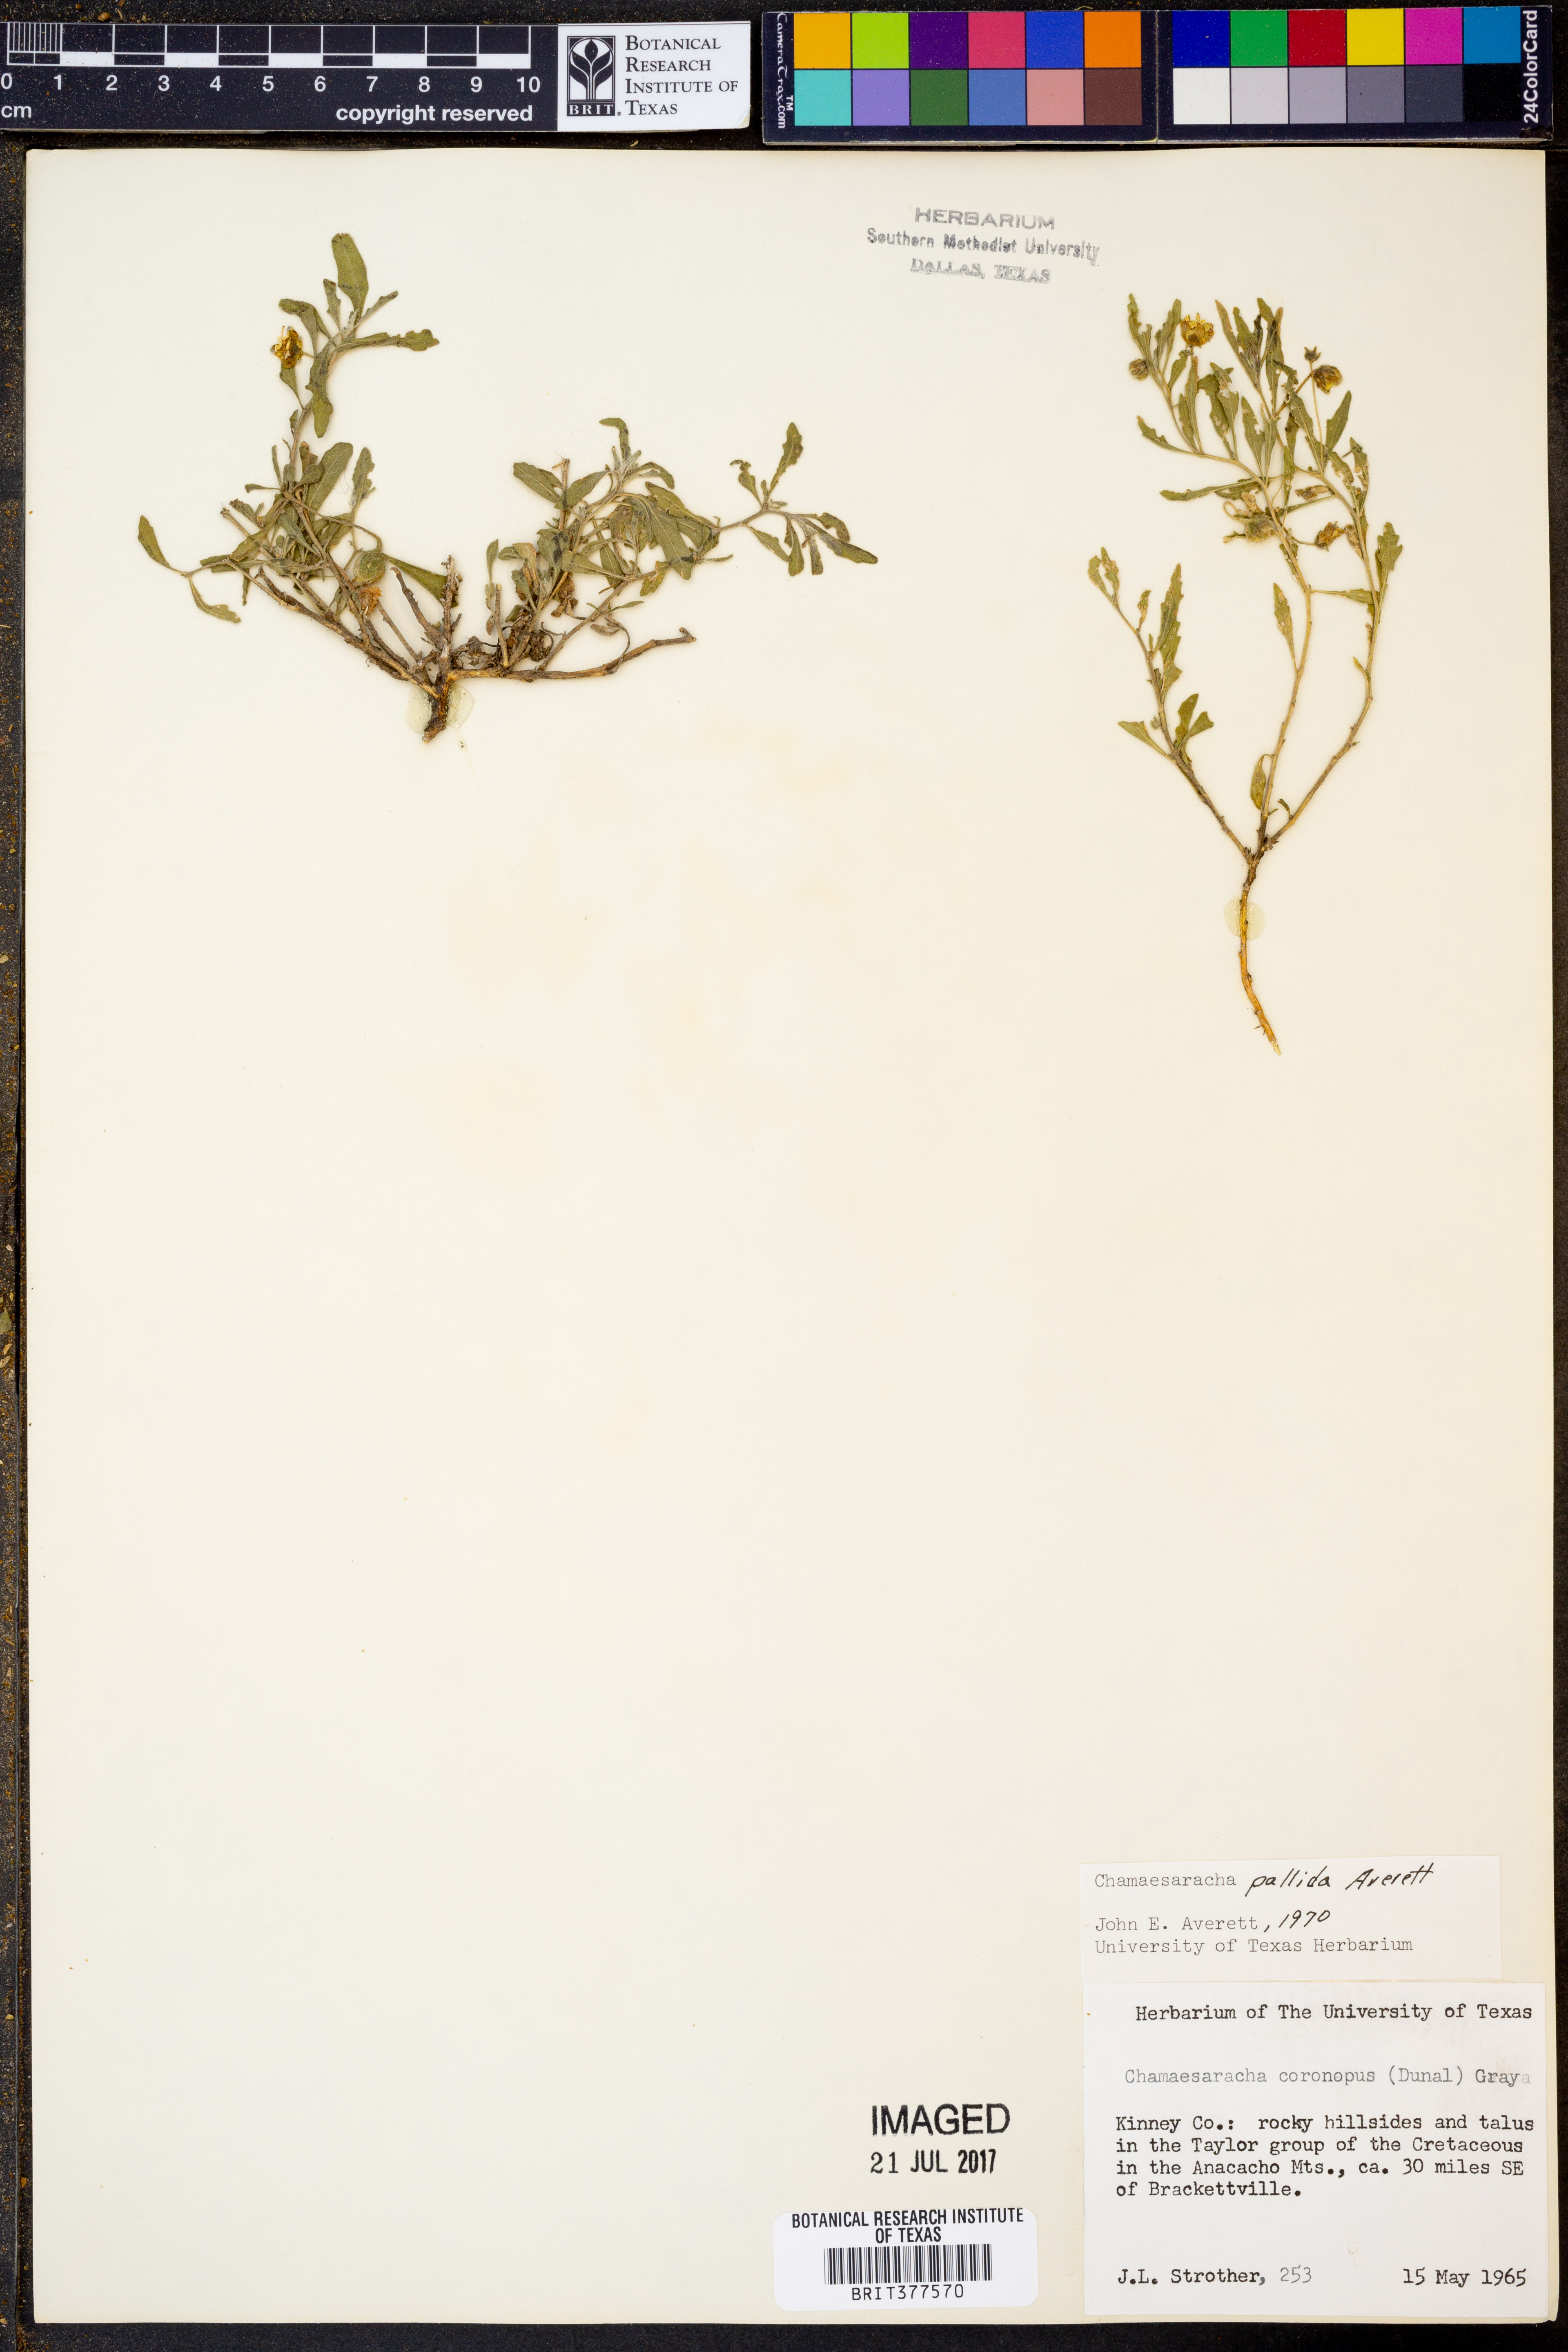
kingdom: Plantae
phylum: Tracheophyta
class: Magnoliopsida
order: Solanales
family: Solanaceae
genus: Chamaesaracha
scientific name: Chamaesaracha pallida
